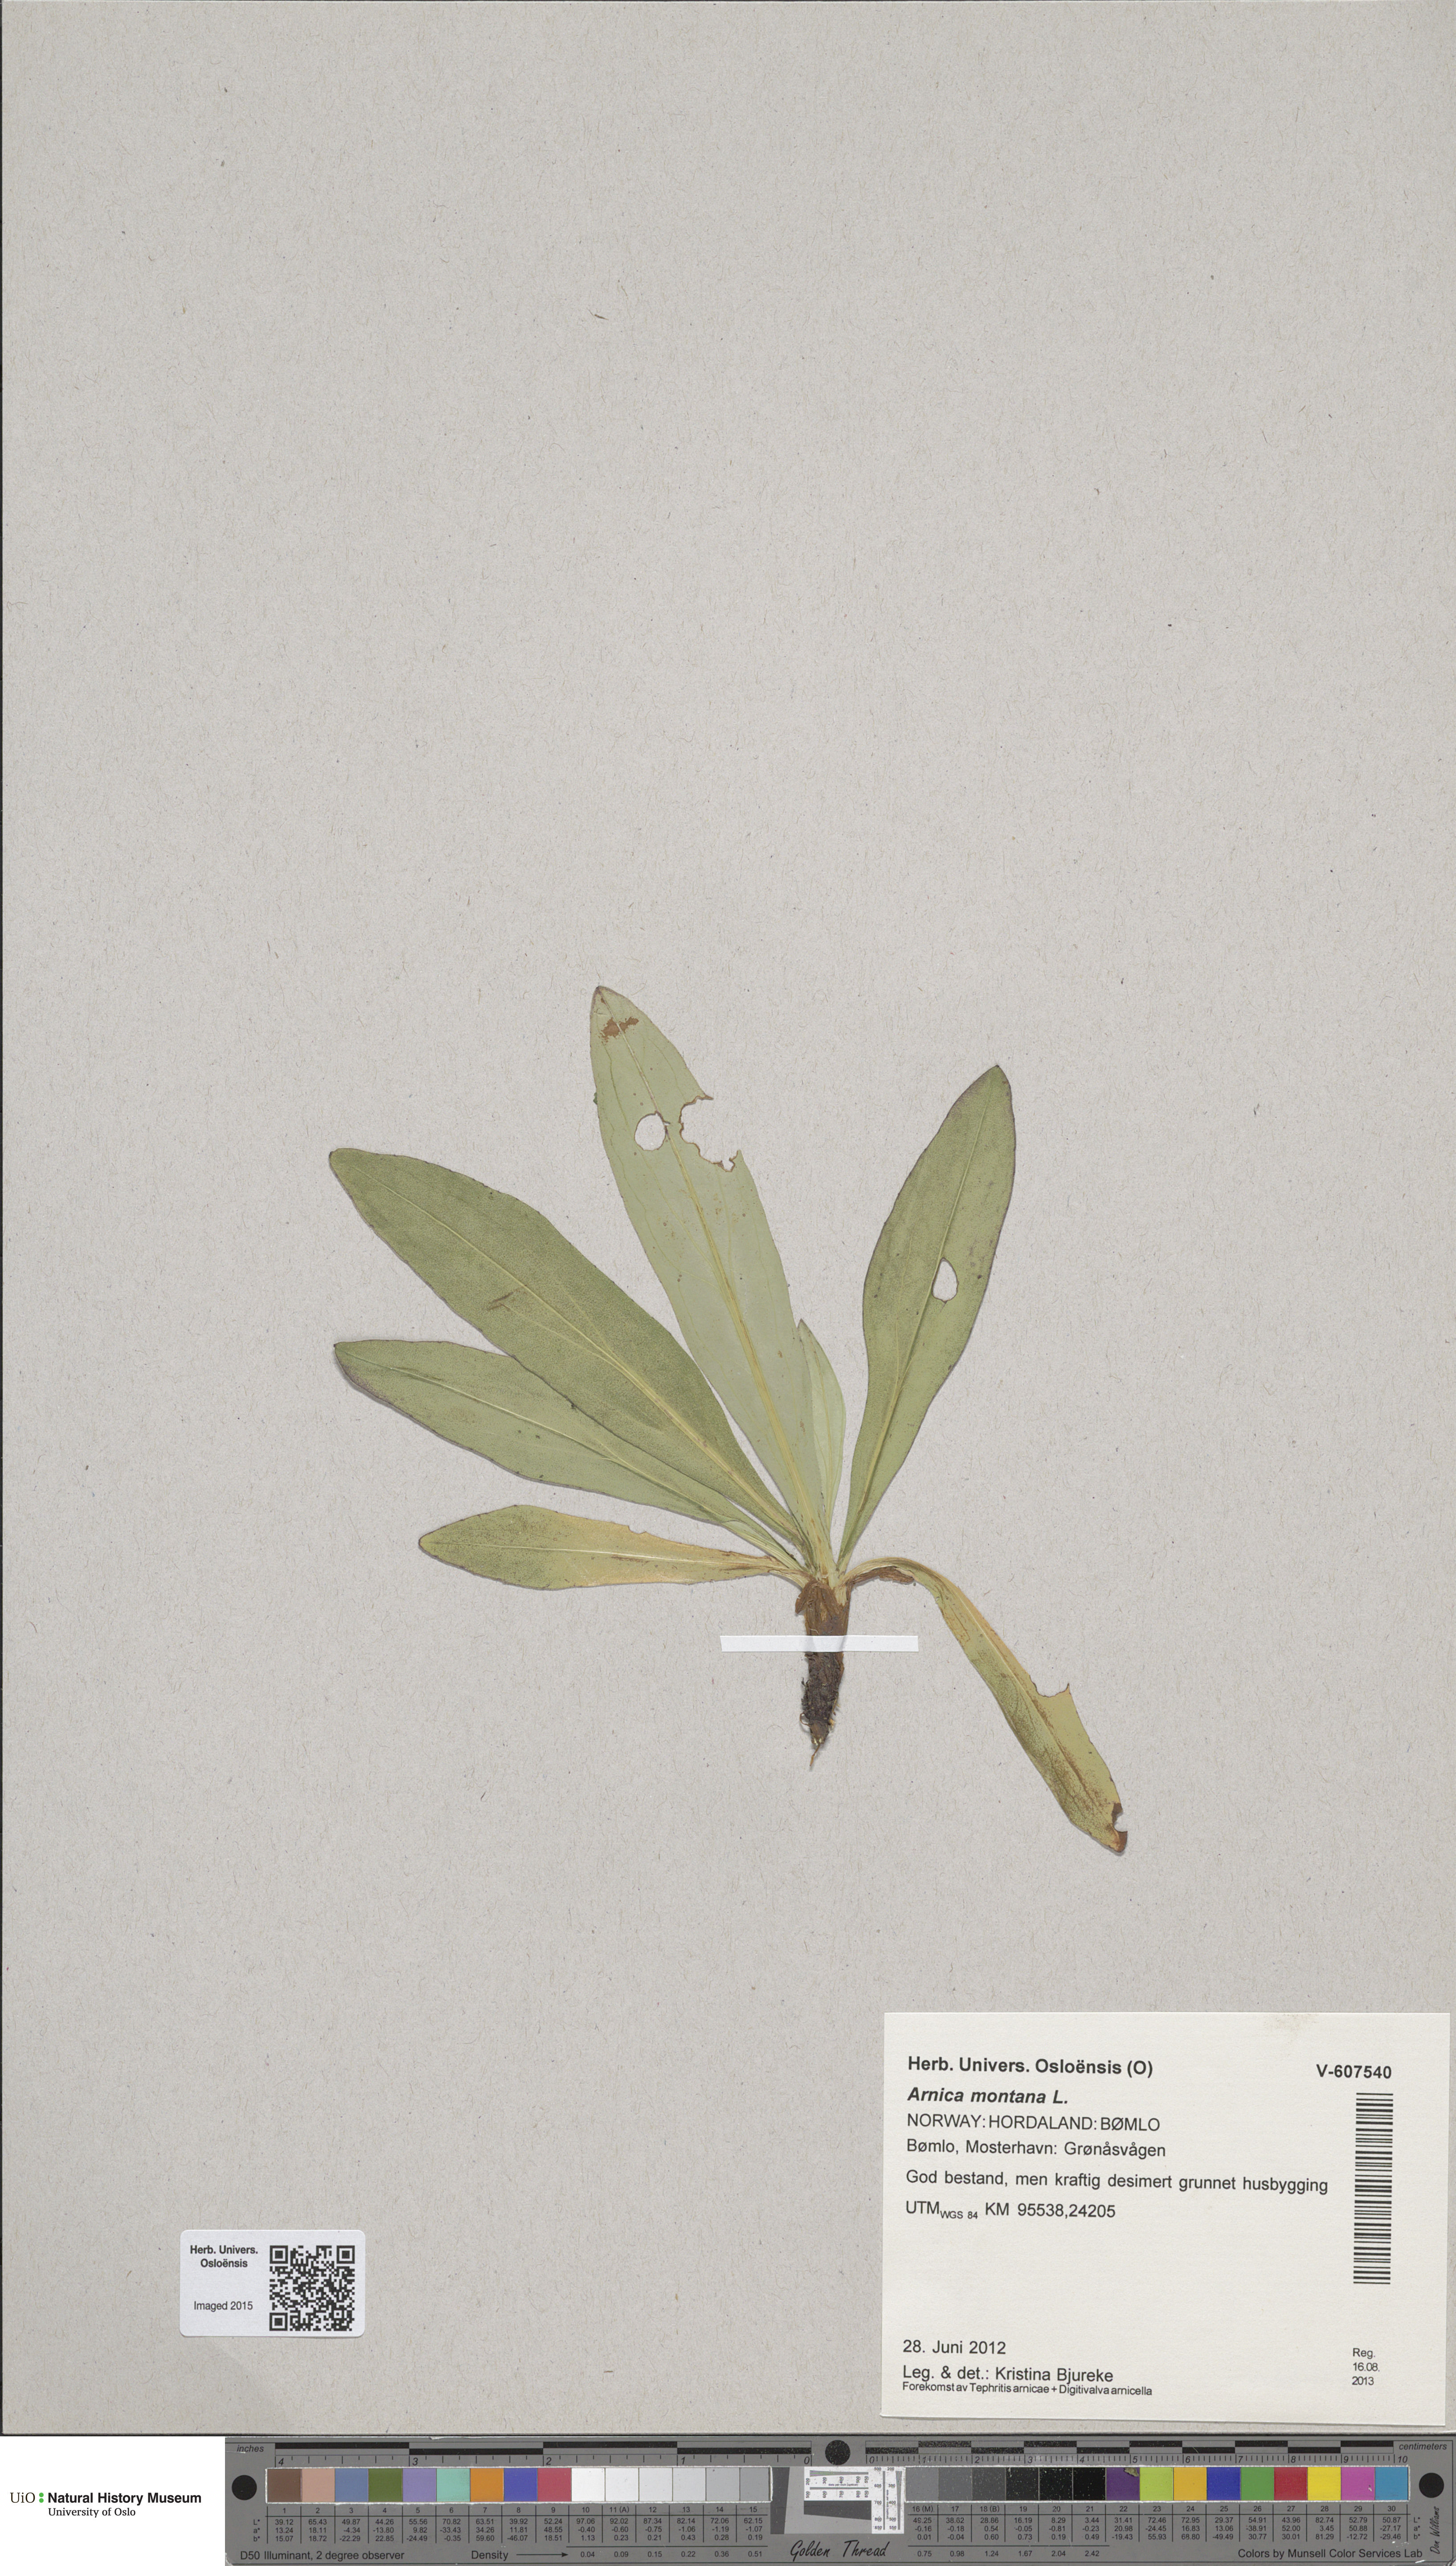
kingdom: Plantae
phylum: Tracheophyta
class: Magnoliopsida
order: Asterales
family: Asteraceae
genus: Arnica
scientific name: Arnica montana
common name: Leopard's bane
